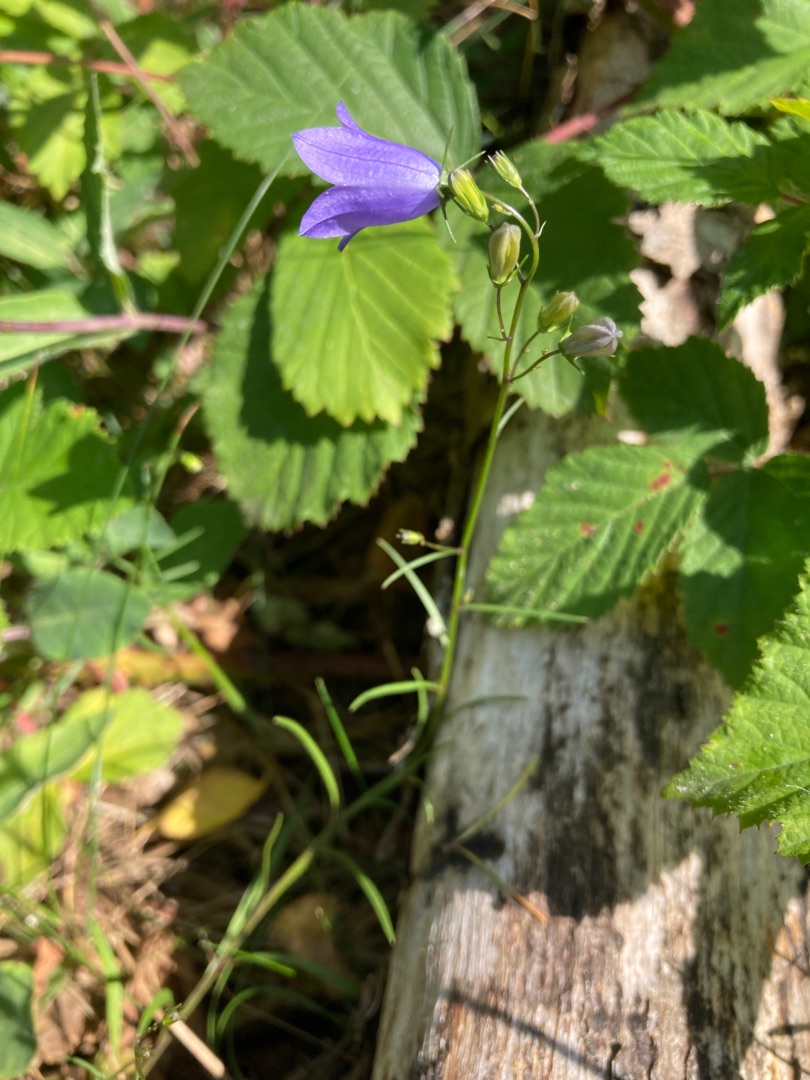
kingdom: Plantae
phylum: Tracheophyta
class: Magnoliopsida
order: Asterales
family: Campanulaceae
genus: Campanula
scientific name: Campanula rotundifolia
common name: Liden klokke
